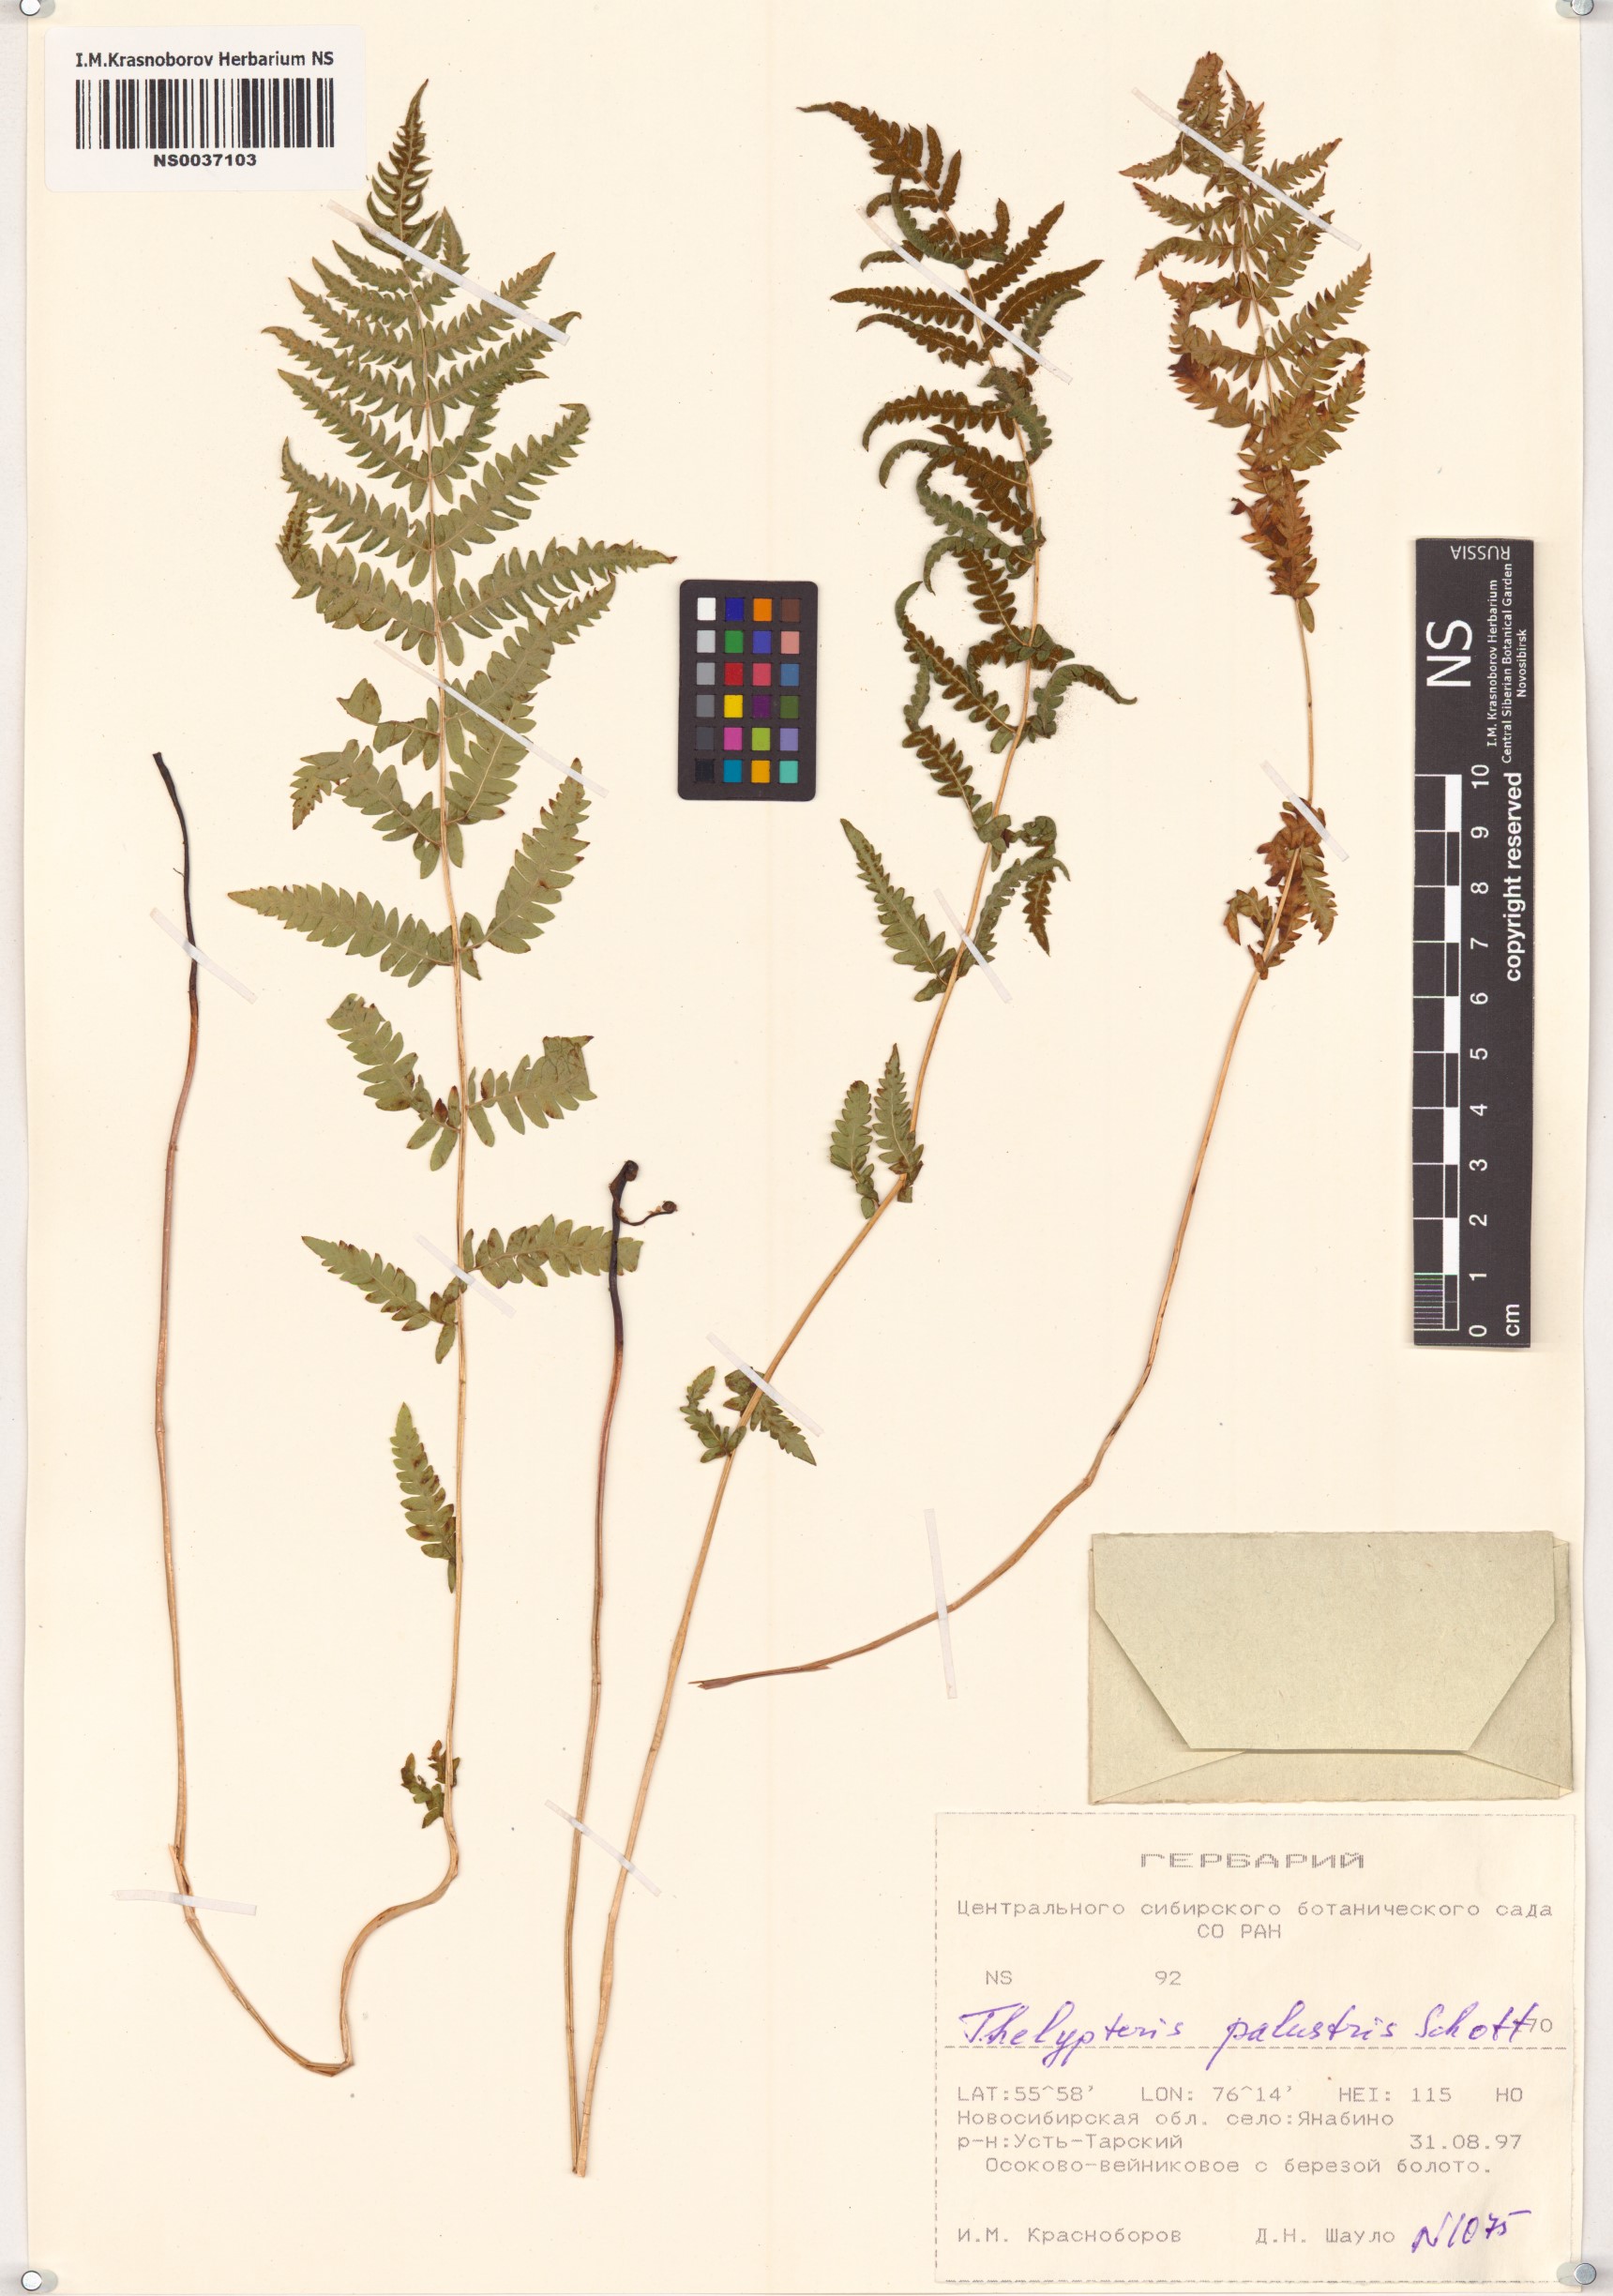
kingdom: Plantae
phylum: Tracheophyta
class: Polypodiopsida
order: Polypodiales
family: Thelypteridaceae
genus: Thelypteris
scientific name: Thelypteris palustris
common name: Marsh fern
